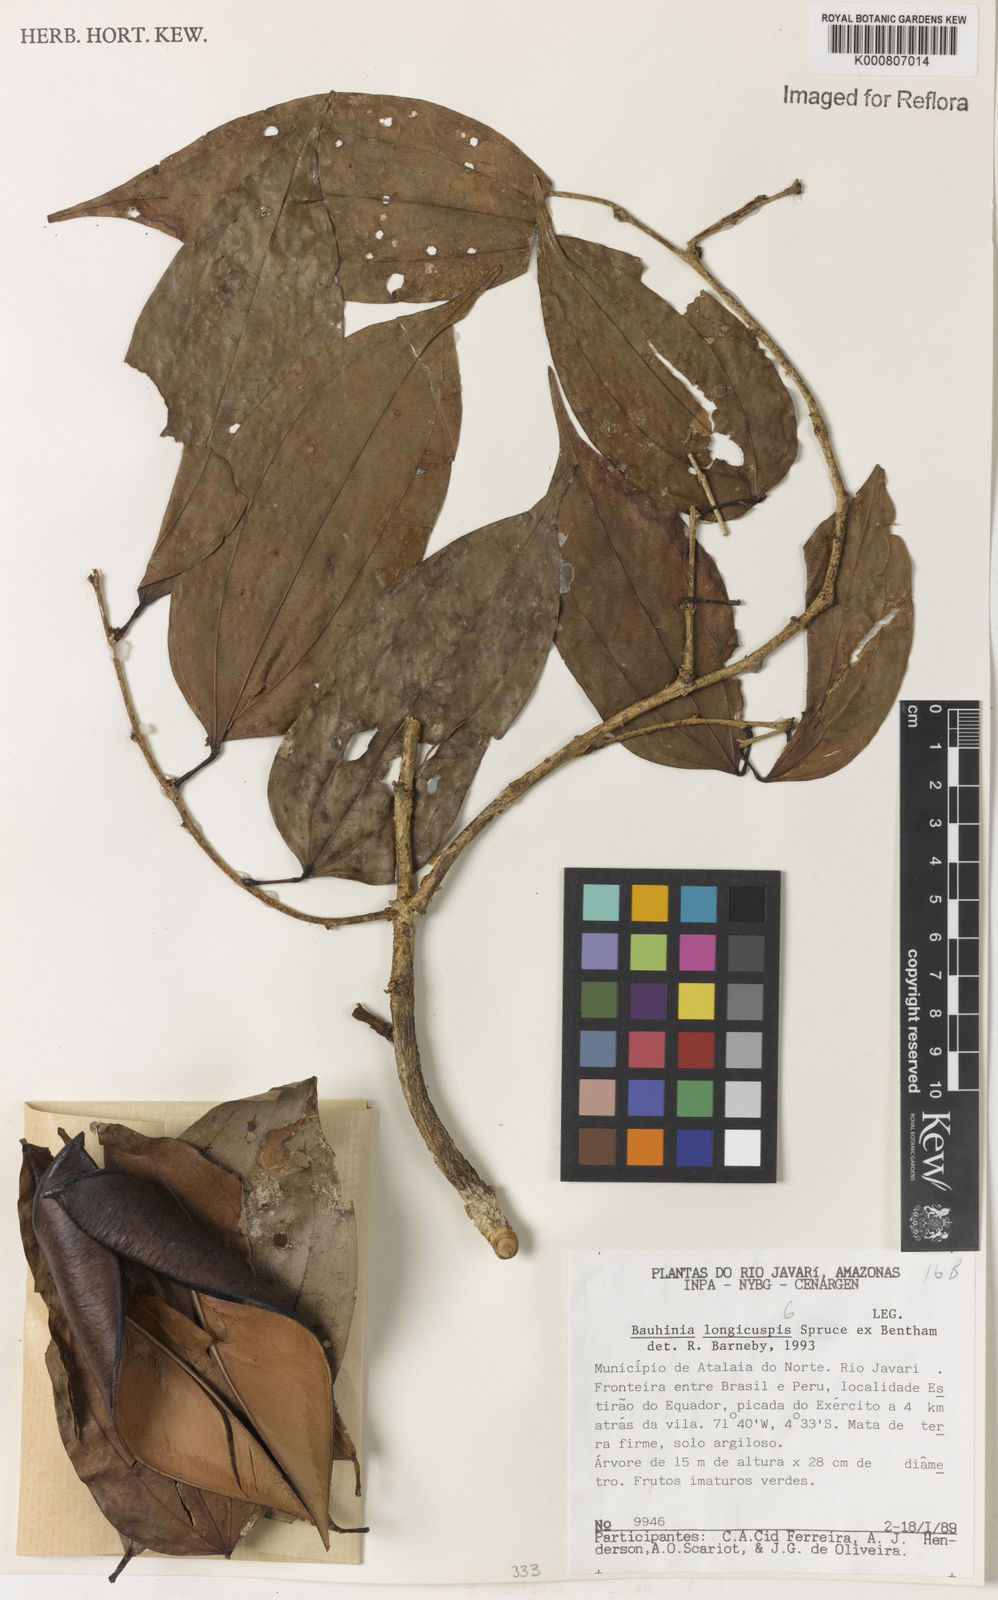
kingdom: Plantae
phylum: Tracheophyta
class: Magnoliopsida
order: Fabales
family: Fabaceae
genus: Bauhinia
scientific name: Bauhinia longicuspis
